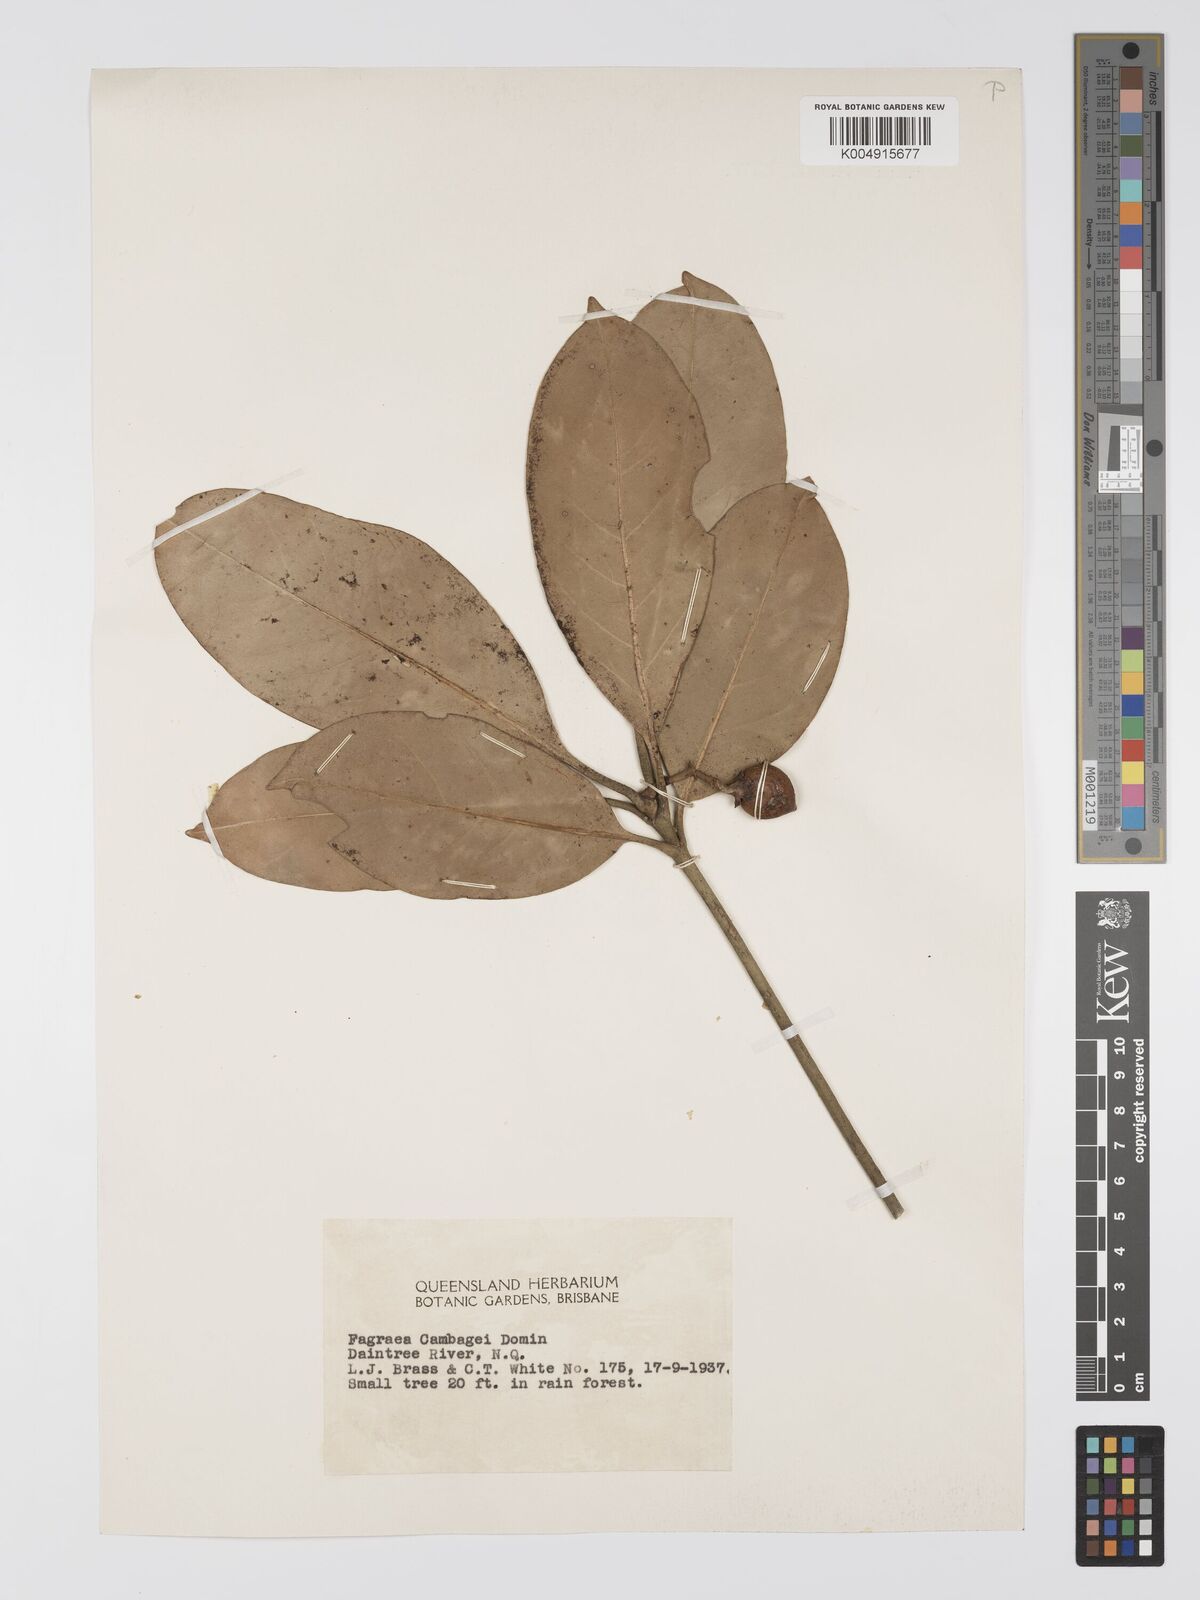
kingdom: Plantae
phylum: Tracheophyta
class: Magnoliopsida
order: Gentianales
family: Gentianaceae
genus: Fagraea
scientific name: Fagraea gracilipes
